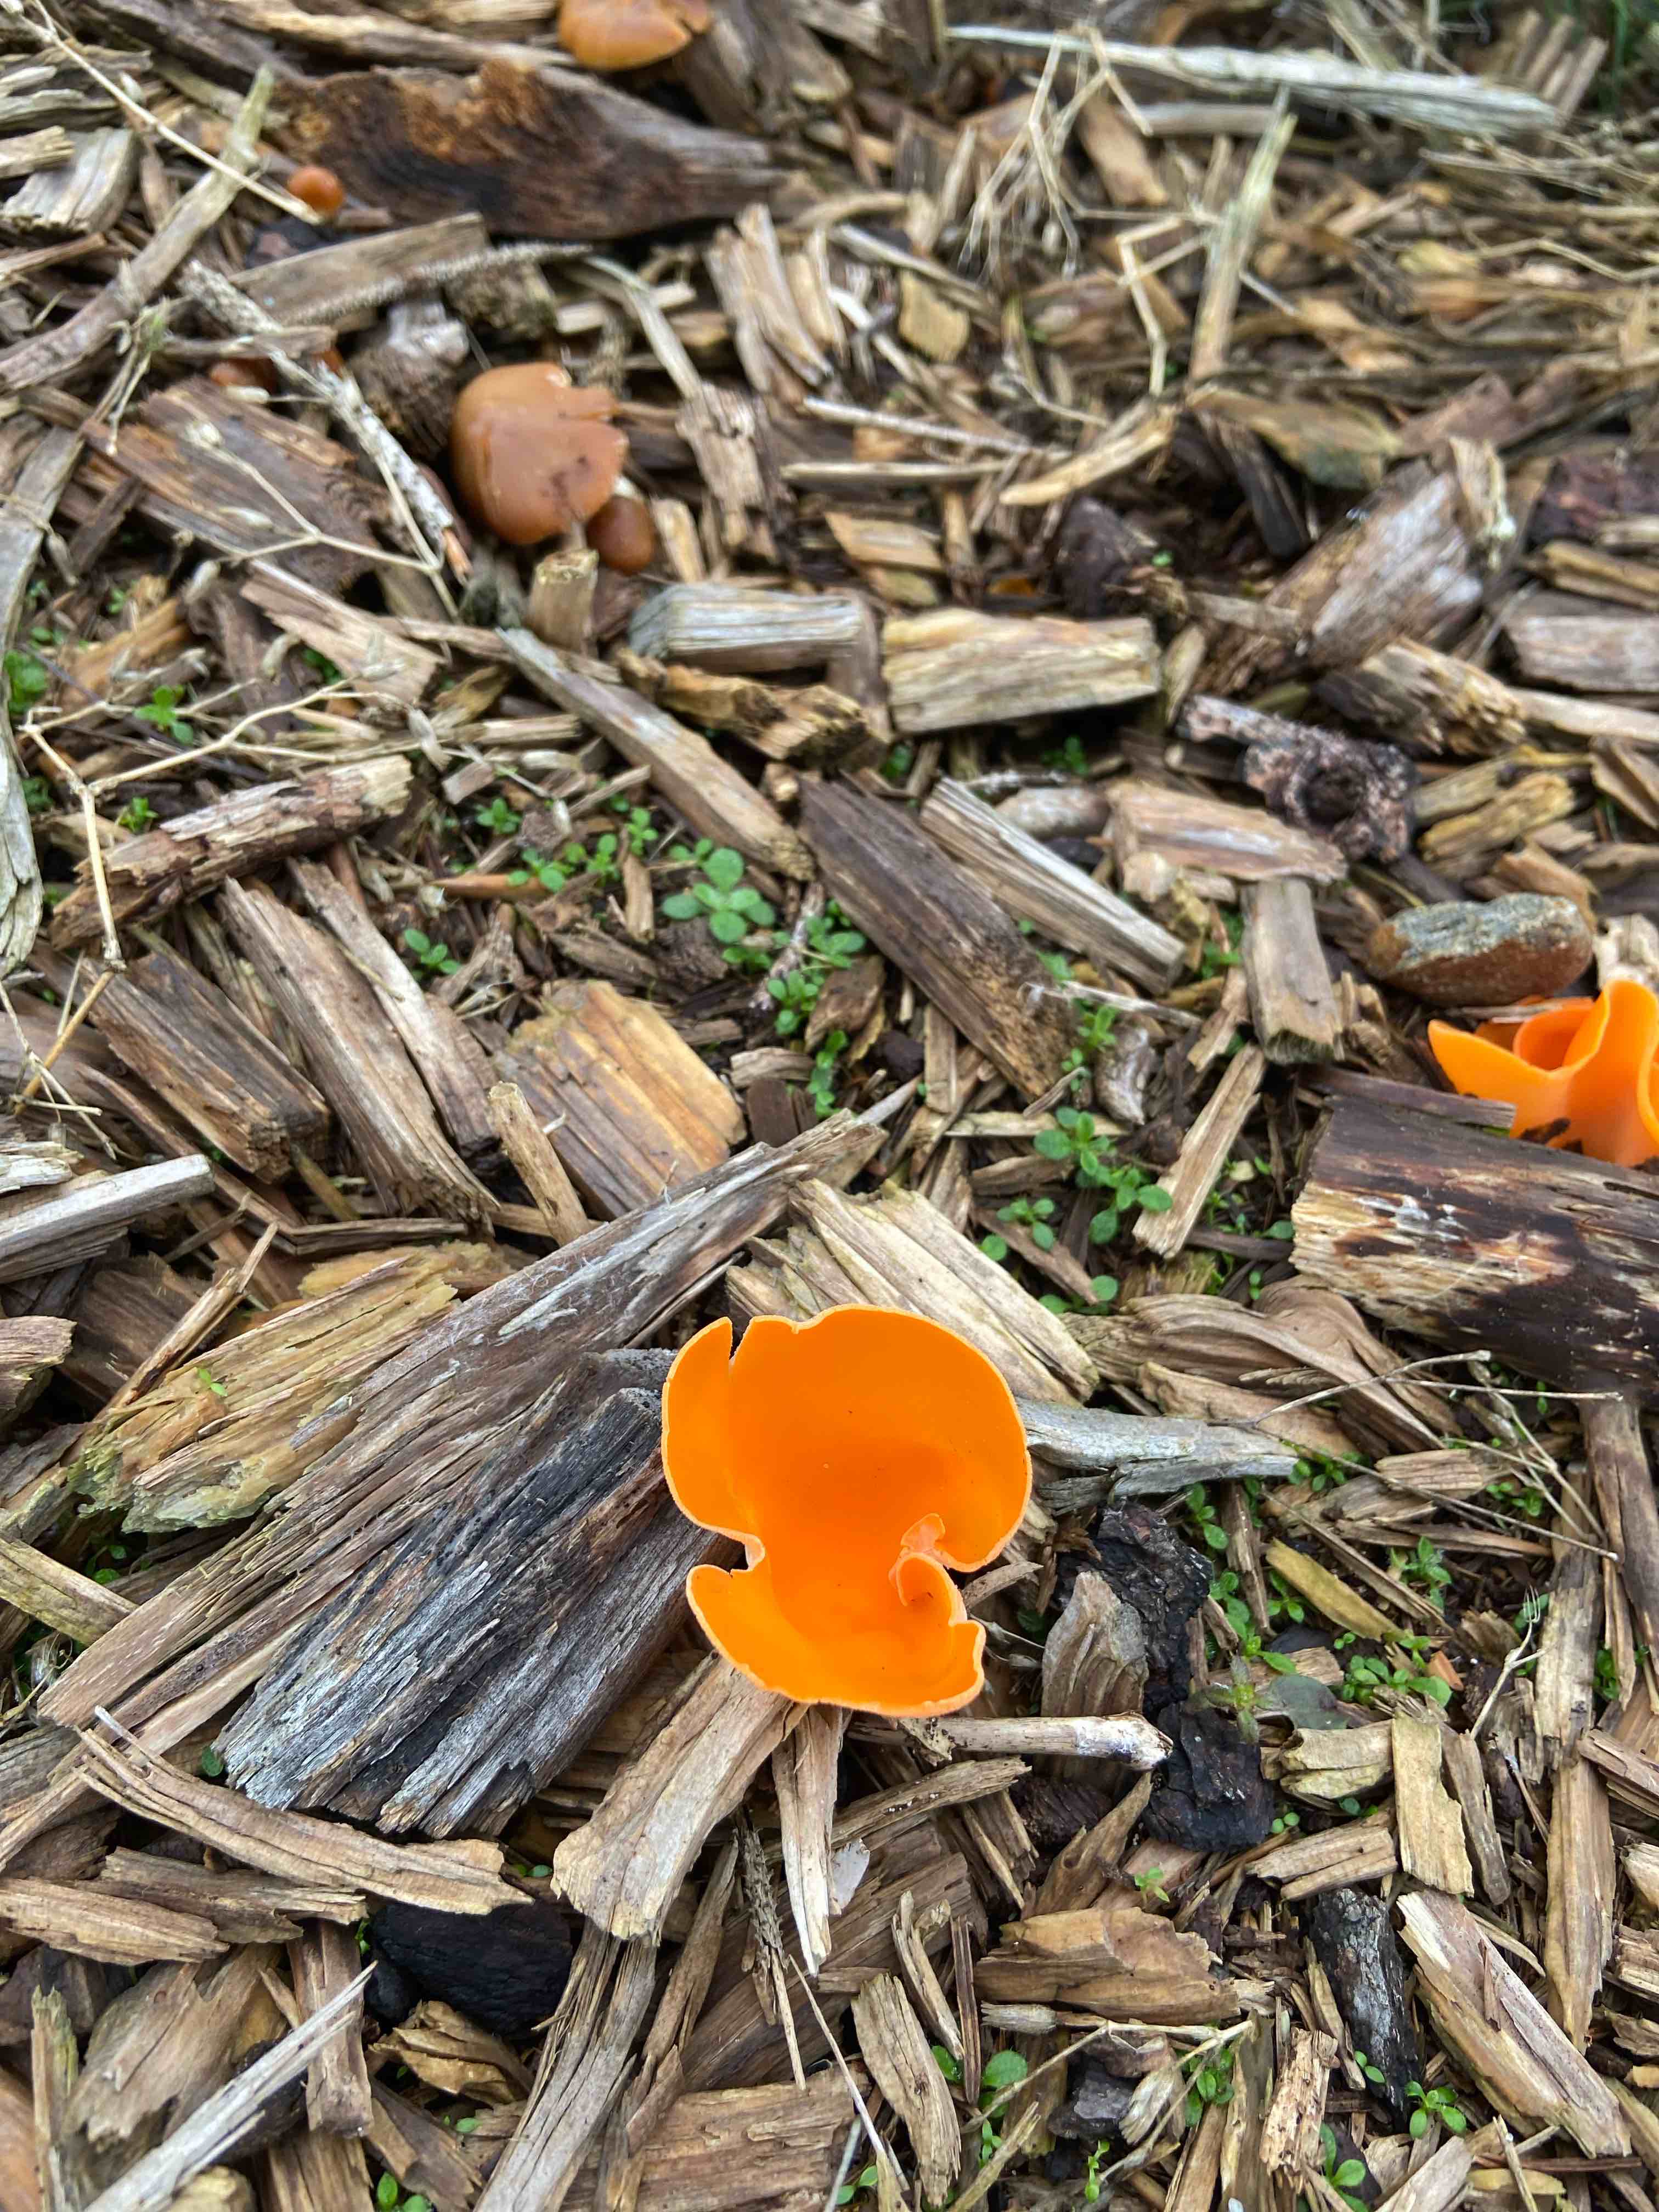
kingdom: Fungi
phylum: Ascomycota
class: Pezizomycetes
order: Pezizales
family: Pyronemataceae
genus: Aleuria
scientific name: Aleuria aurantia
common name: almindelig orangebæger
